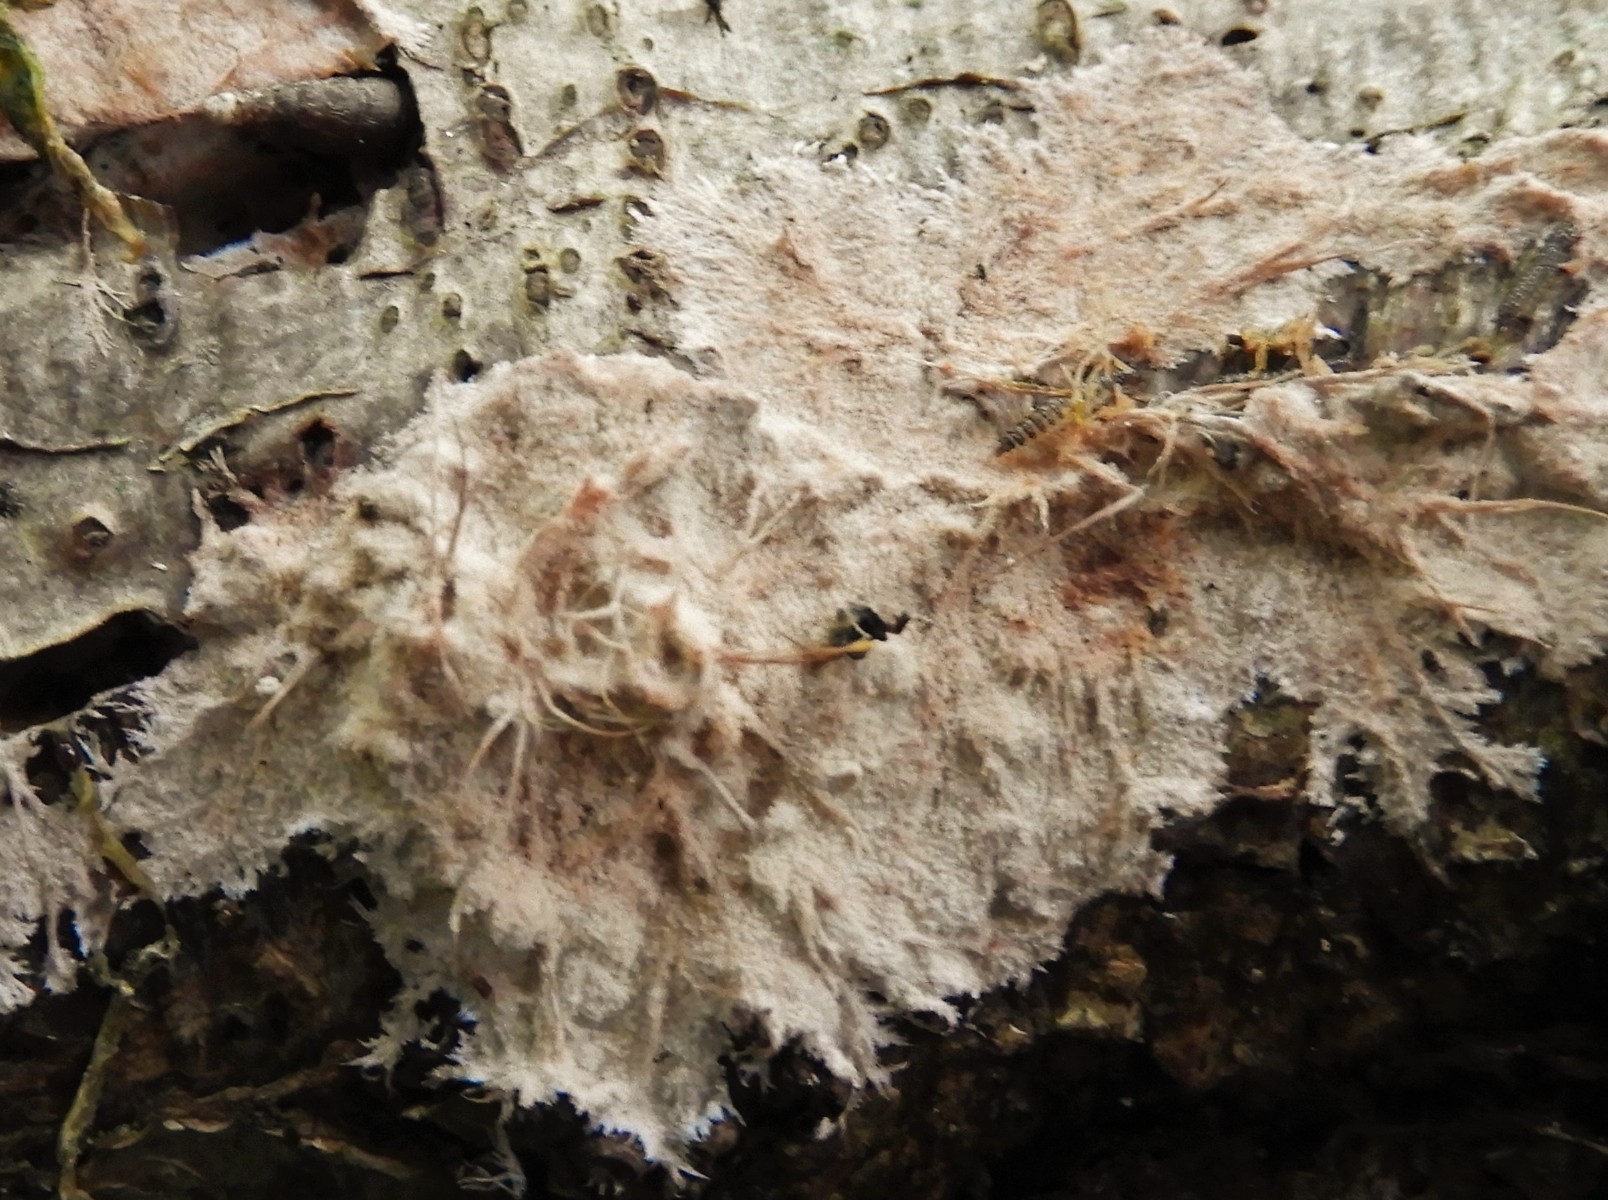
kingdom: Fungi
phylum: Basidiomycota
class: Agaricomycetes
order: Polyporales
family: Steccherinaceae
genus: Steccherinum
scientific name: Steccherinum fimbriatum
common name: trådet skønpig
